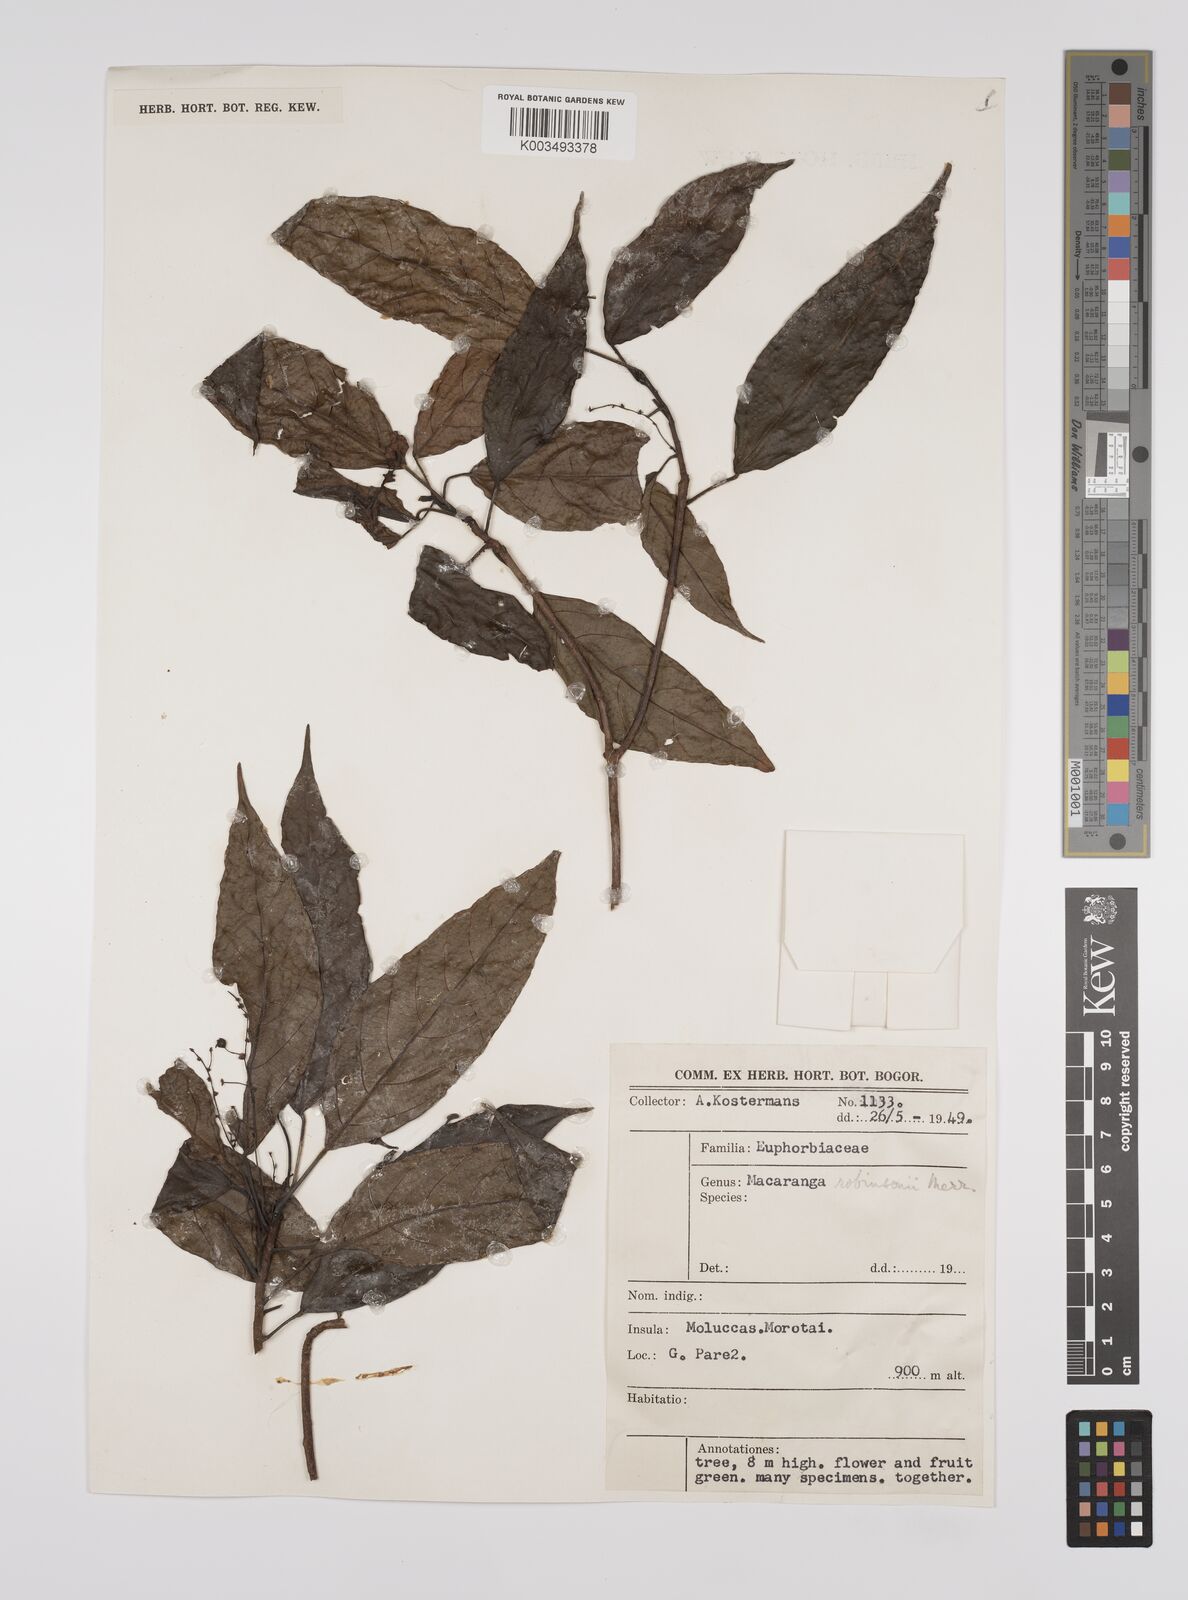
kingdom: Plantae
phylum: Tracheophyta
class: Magnoliopsida
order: Malpighiales
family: Euphorbiaceae
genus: Macaranga
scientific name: Macaranga robinsonii
